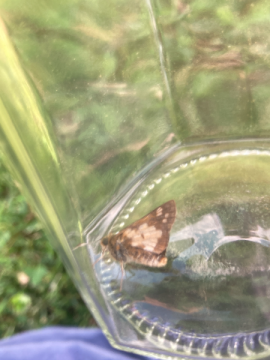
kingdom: Animalia
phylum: Arthropoda
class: Insecta
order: Lepidoptera
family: Hesperiidae
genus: Polites
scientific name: Polites coras
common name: Peck's Skipper
